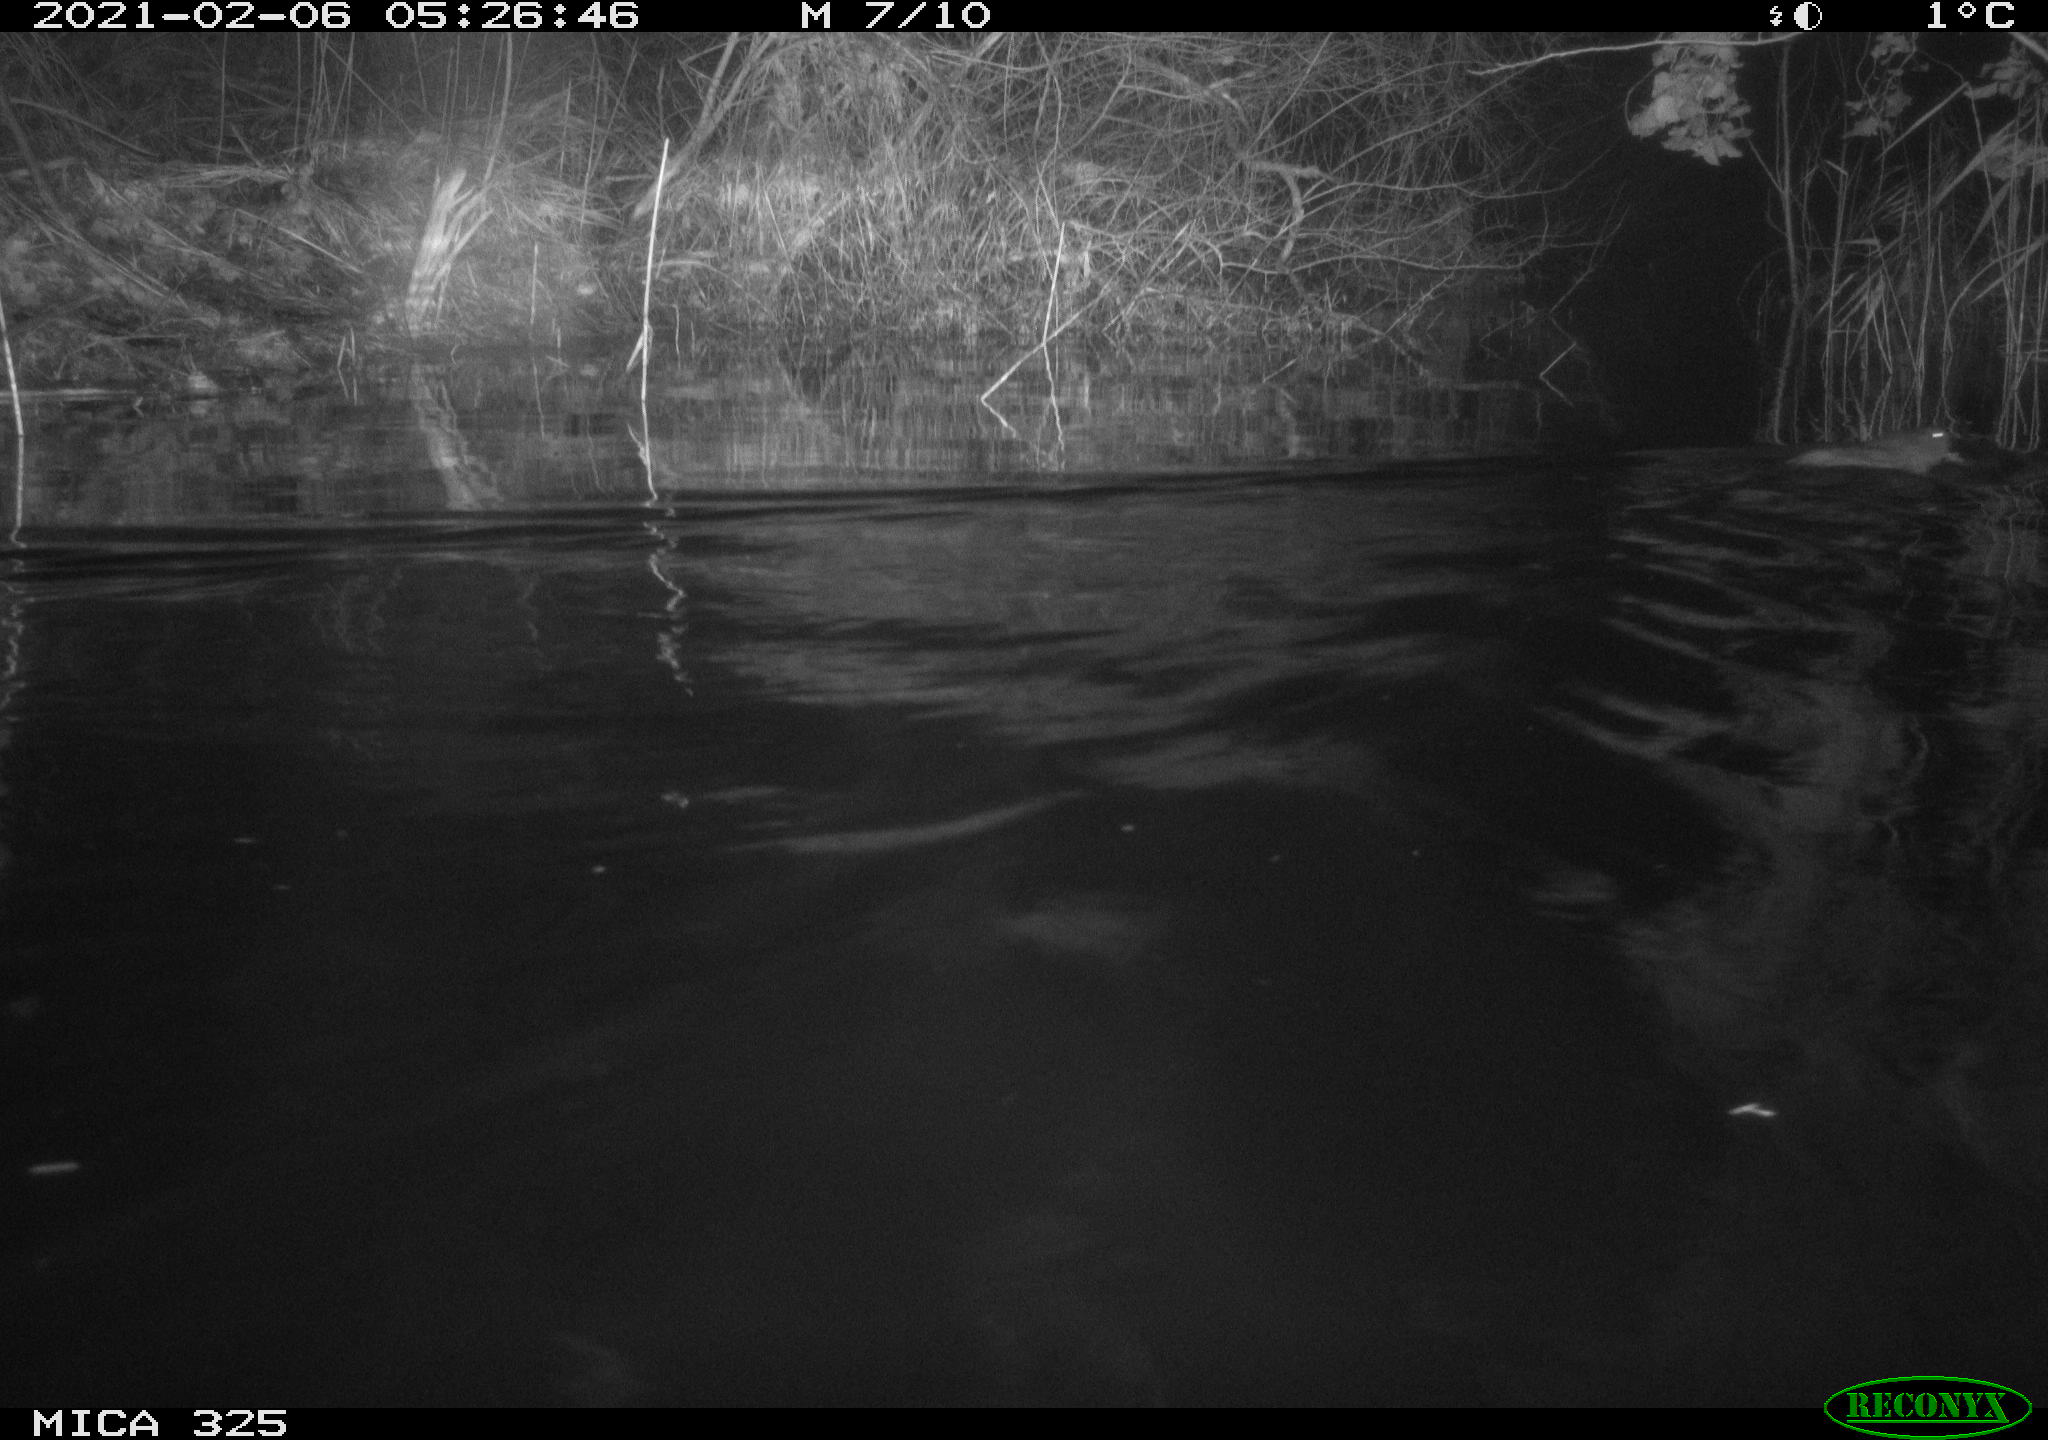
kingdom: Animalia
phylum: Chordata
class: Mammalia
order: Rodentia
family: Cricetidae
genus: Ondatra
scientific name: Ondatra zibethicus
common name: Muskrat
